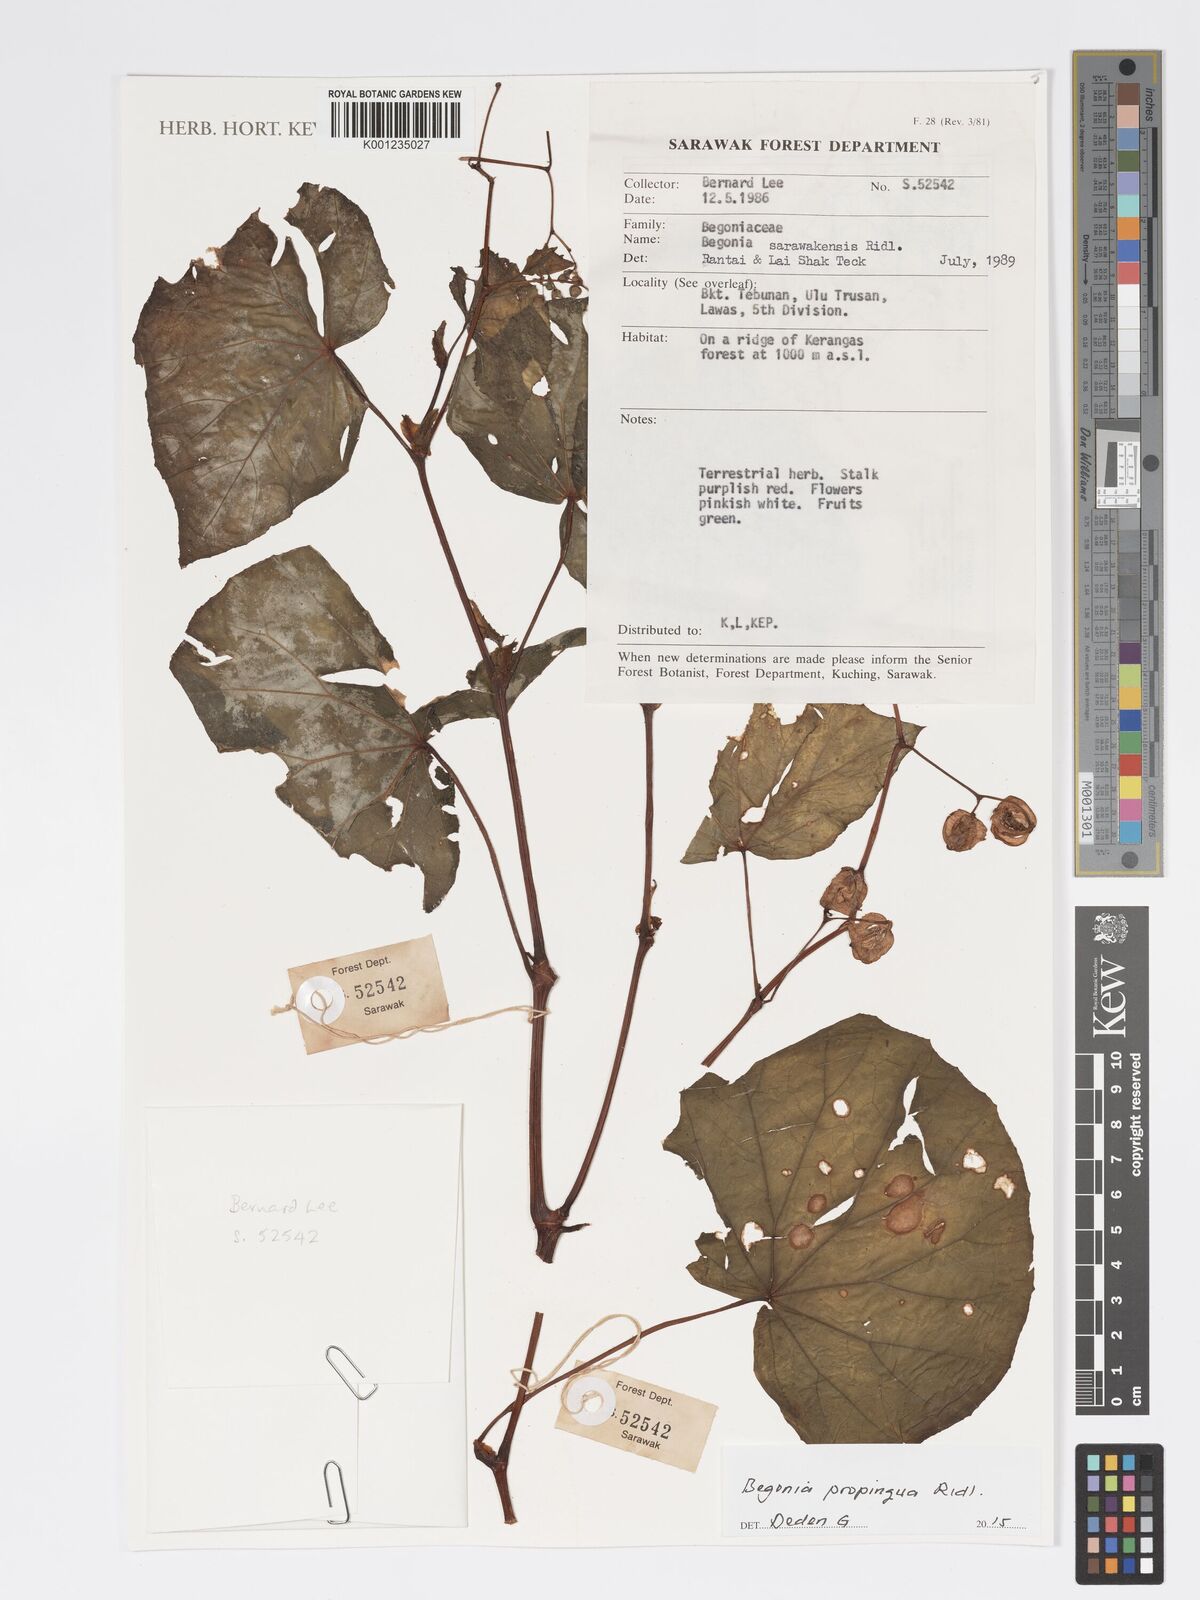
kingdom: Plantae
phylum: Tracheophyta
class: Magnoliopsida
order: Cucurbitales
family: Begoniaceae
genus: Begonia
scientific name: Begonia propinqua
